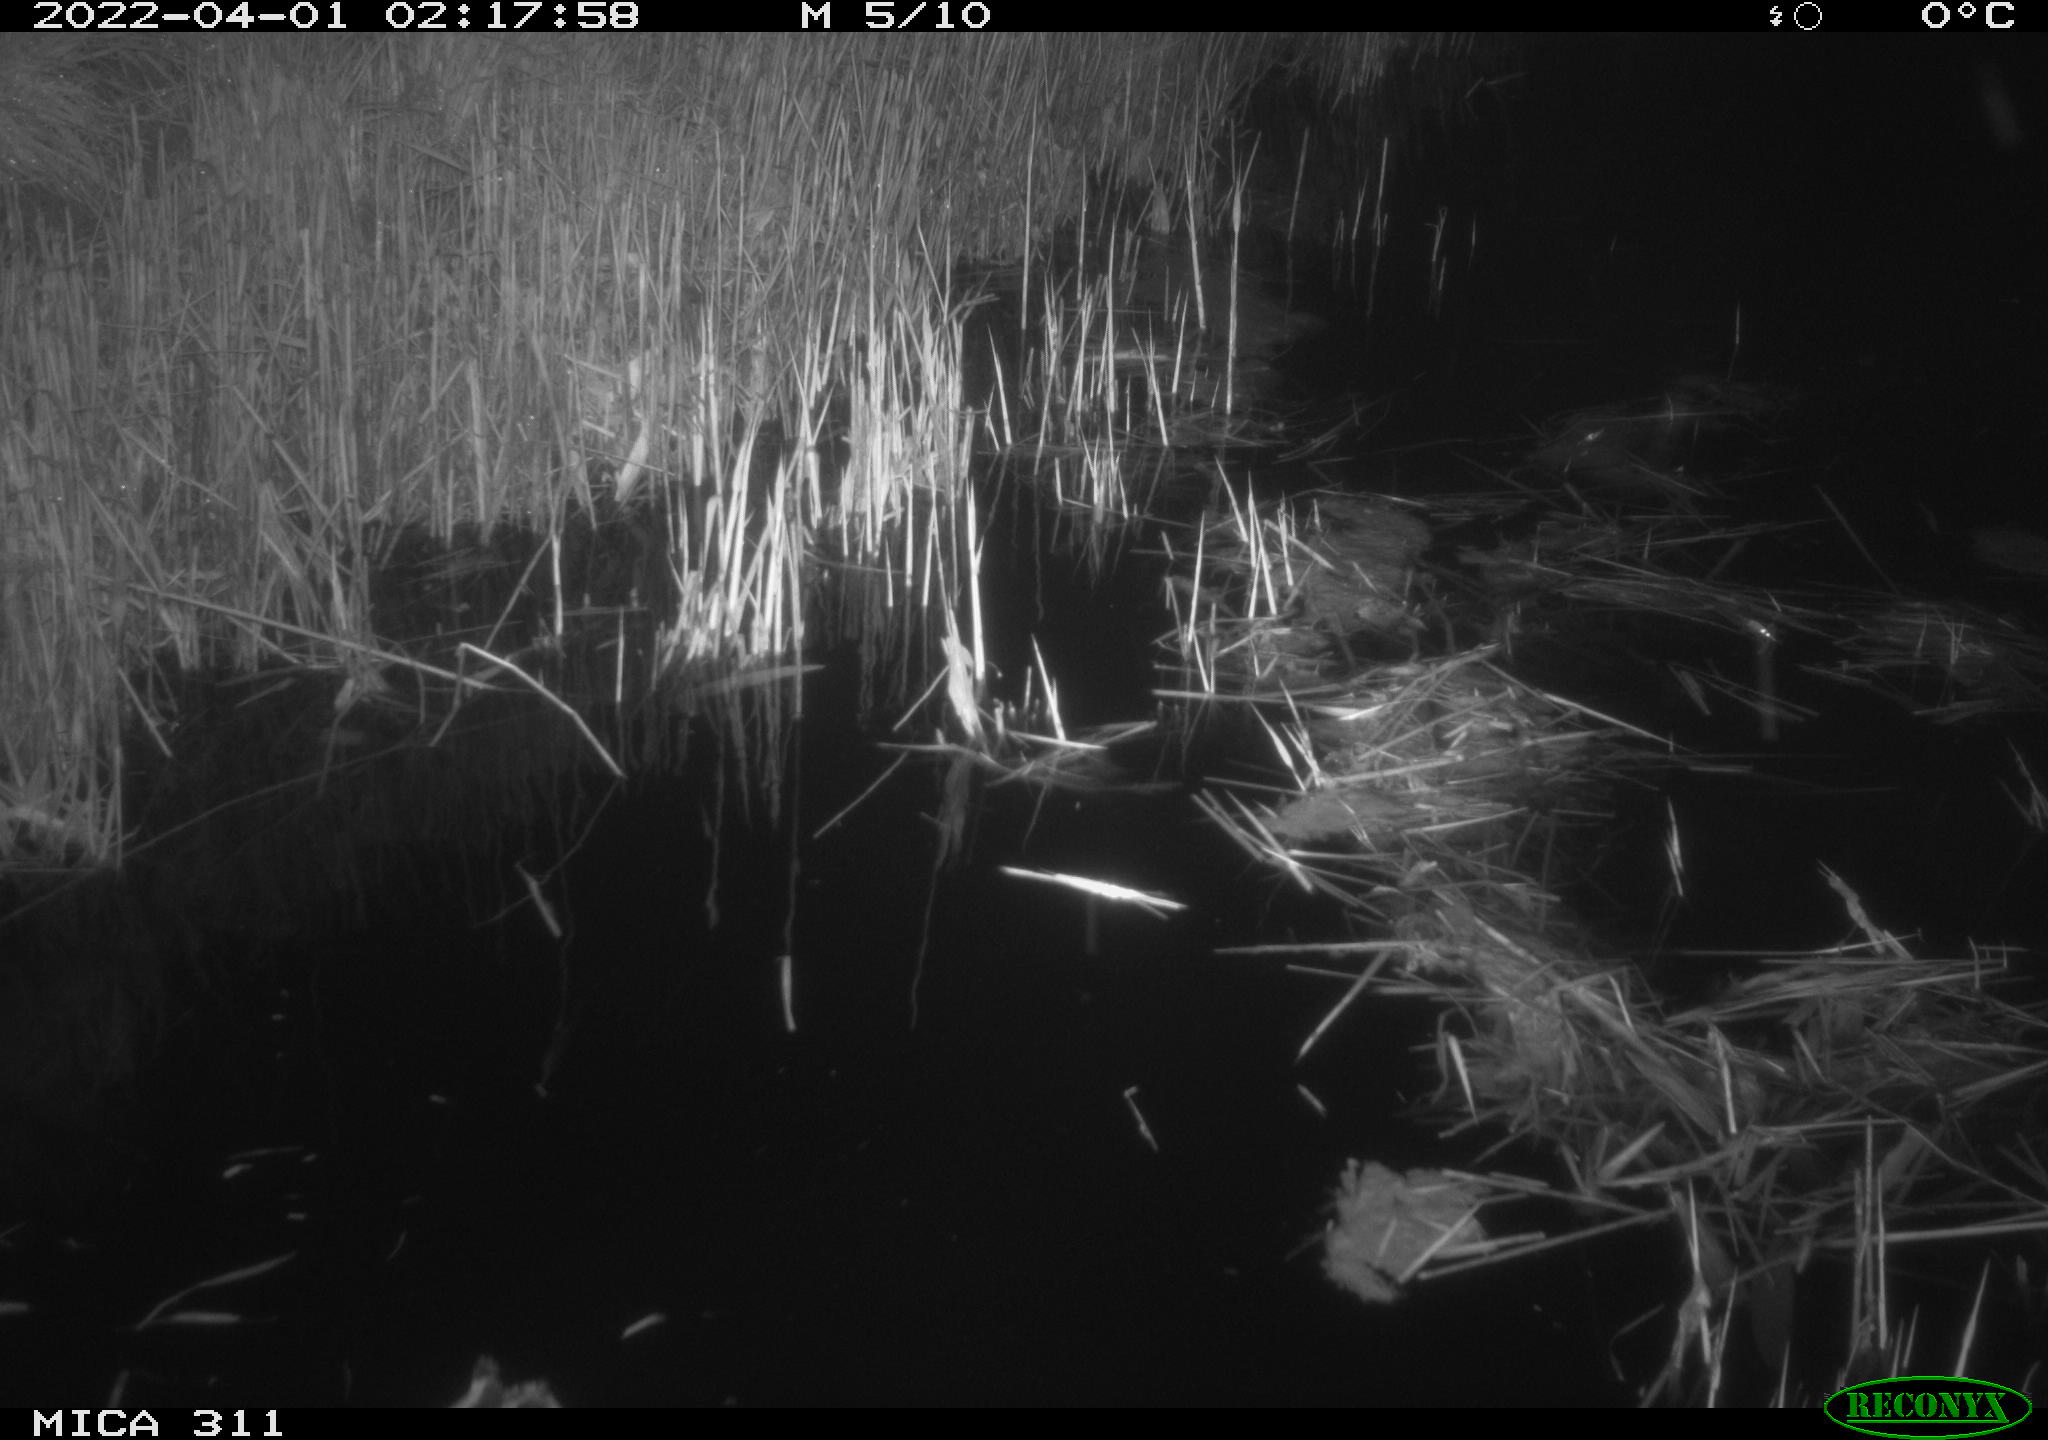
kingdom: Animalia
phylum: Chordata
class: Aves
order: Anseriformes
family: Anatidae
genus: Anas
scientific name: Anas platyrhynchos
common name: Mallard
